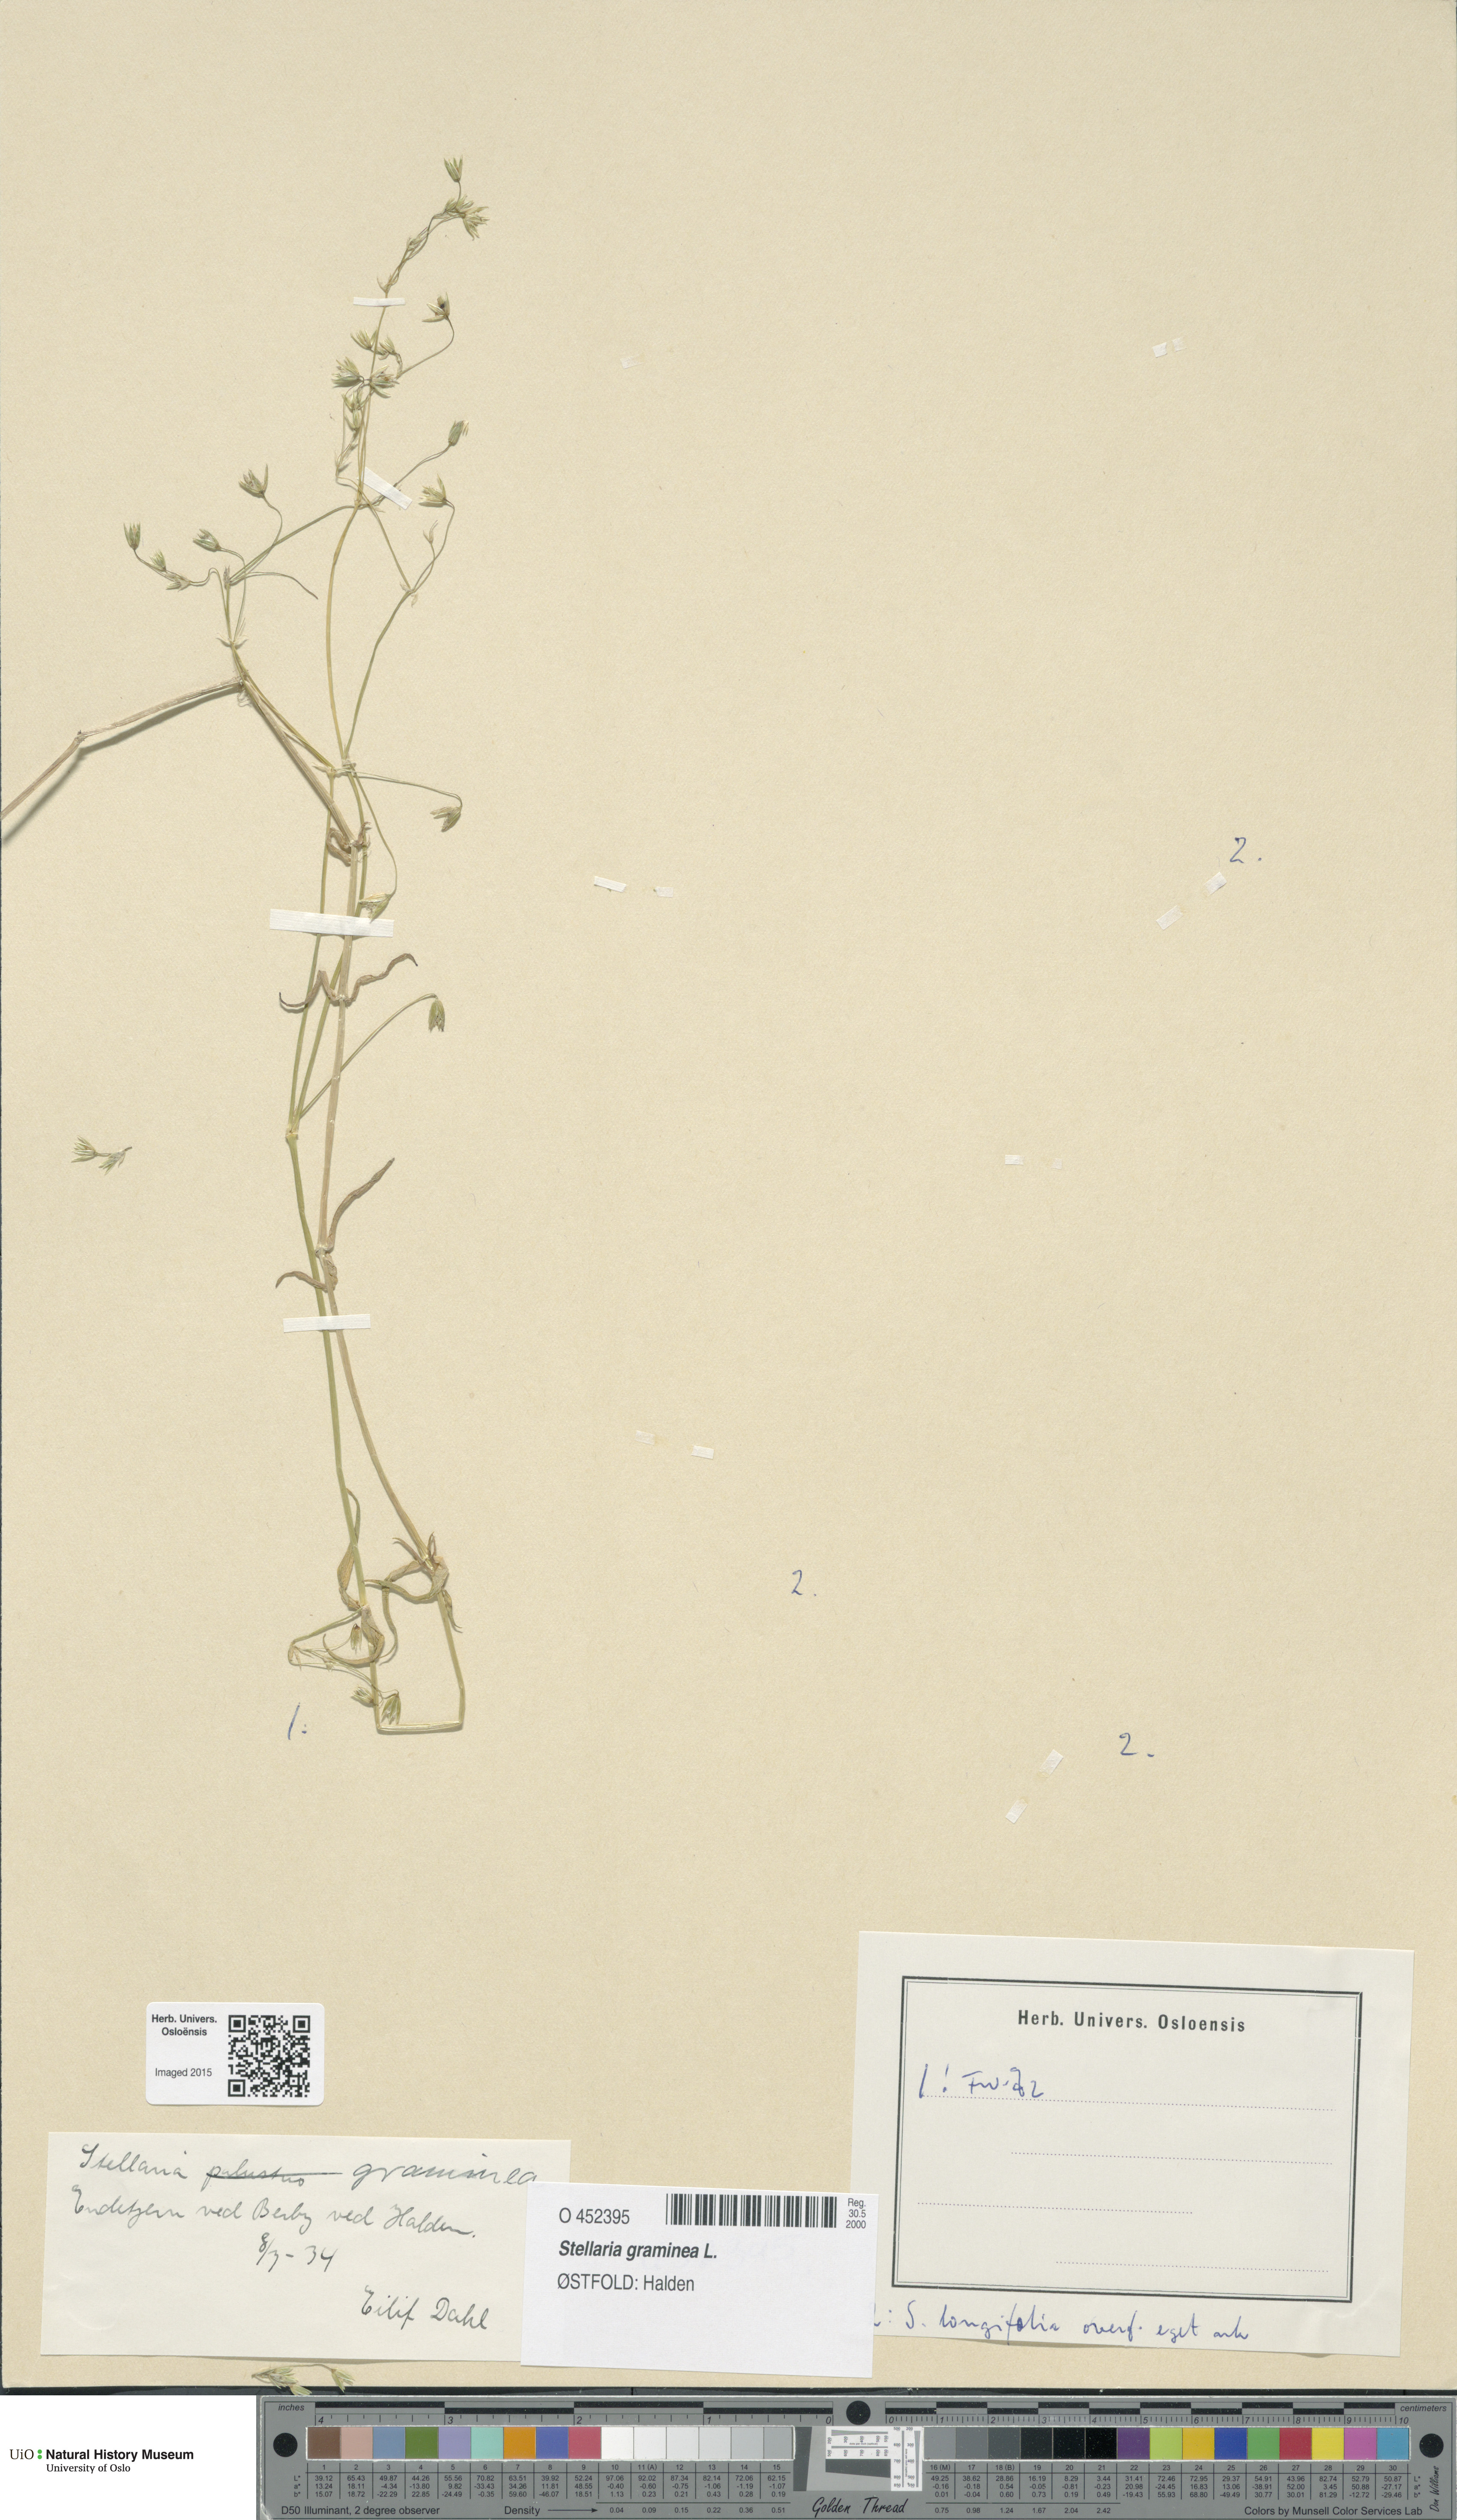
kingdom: Plantae
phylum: Tracheophyta
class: Magnoliopsida
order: Caryophyllales
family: Caryophyllaceae
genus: Stellaria
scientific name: Stellaria graminea
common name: Grass-like starwort
